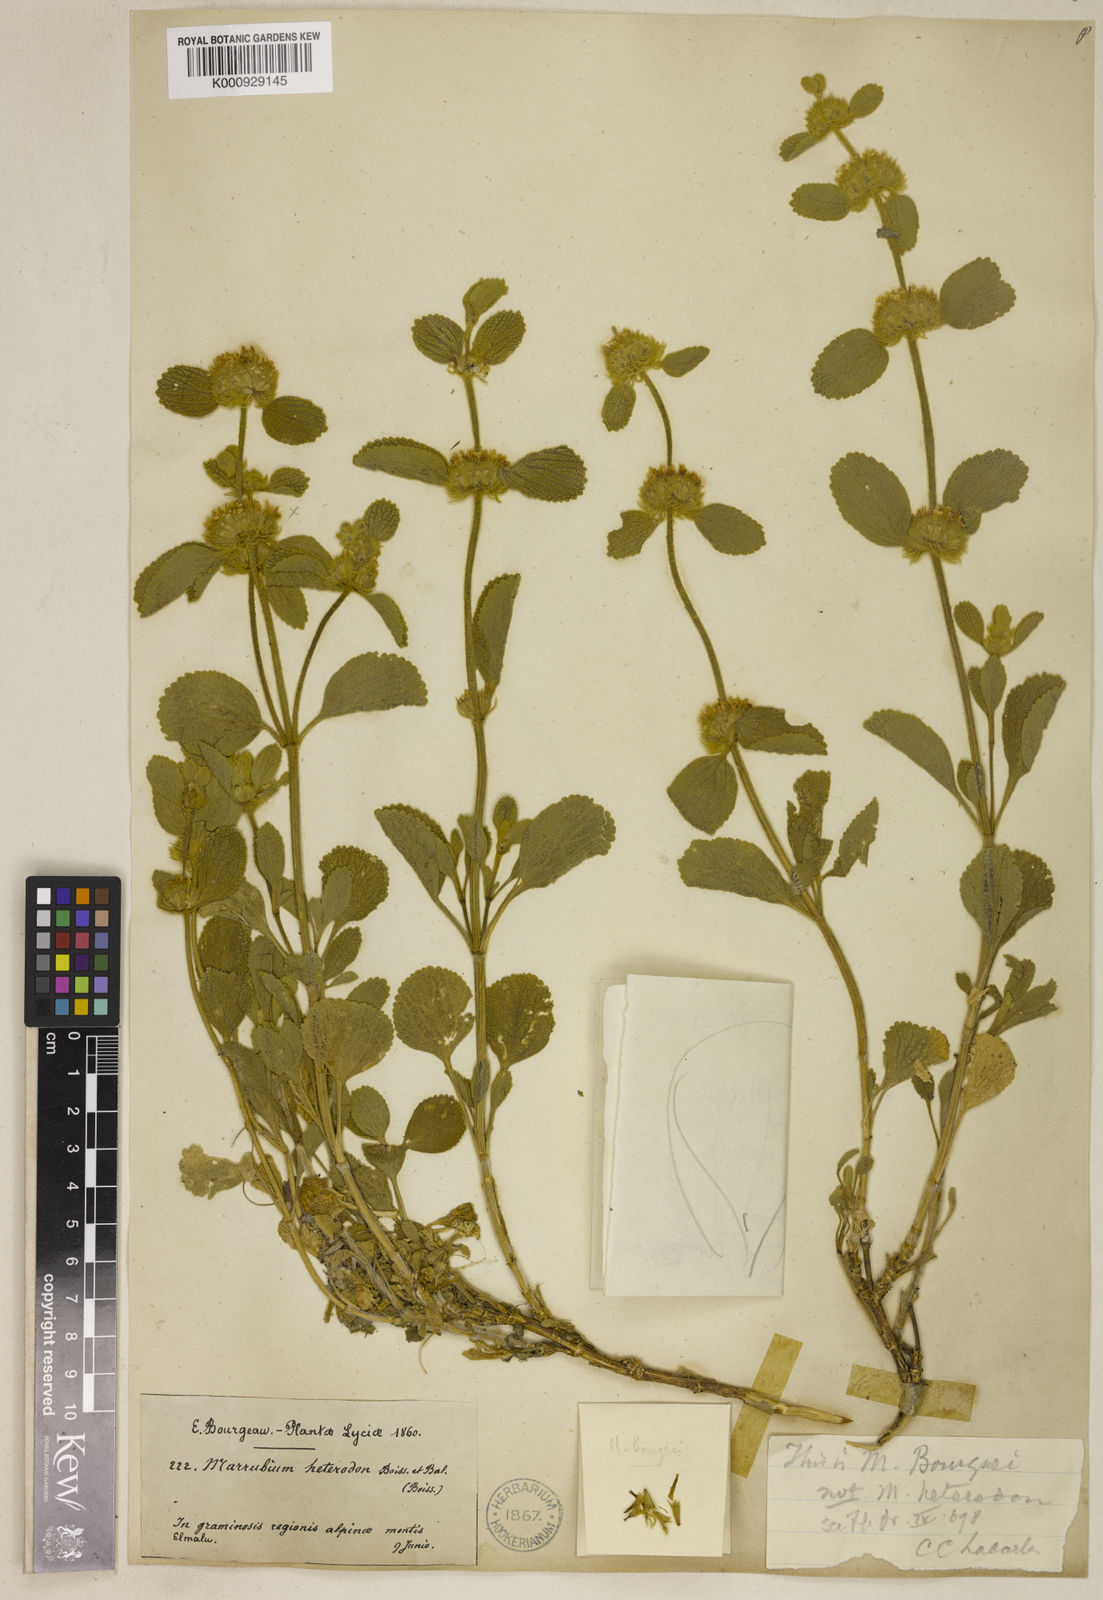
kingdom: Plantae
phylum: Tracheophyta
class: Magnoliopsida
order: Lamiales
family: Lamiaceae
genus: Marrubium
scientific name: Marrubium bourgaei
